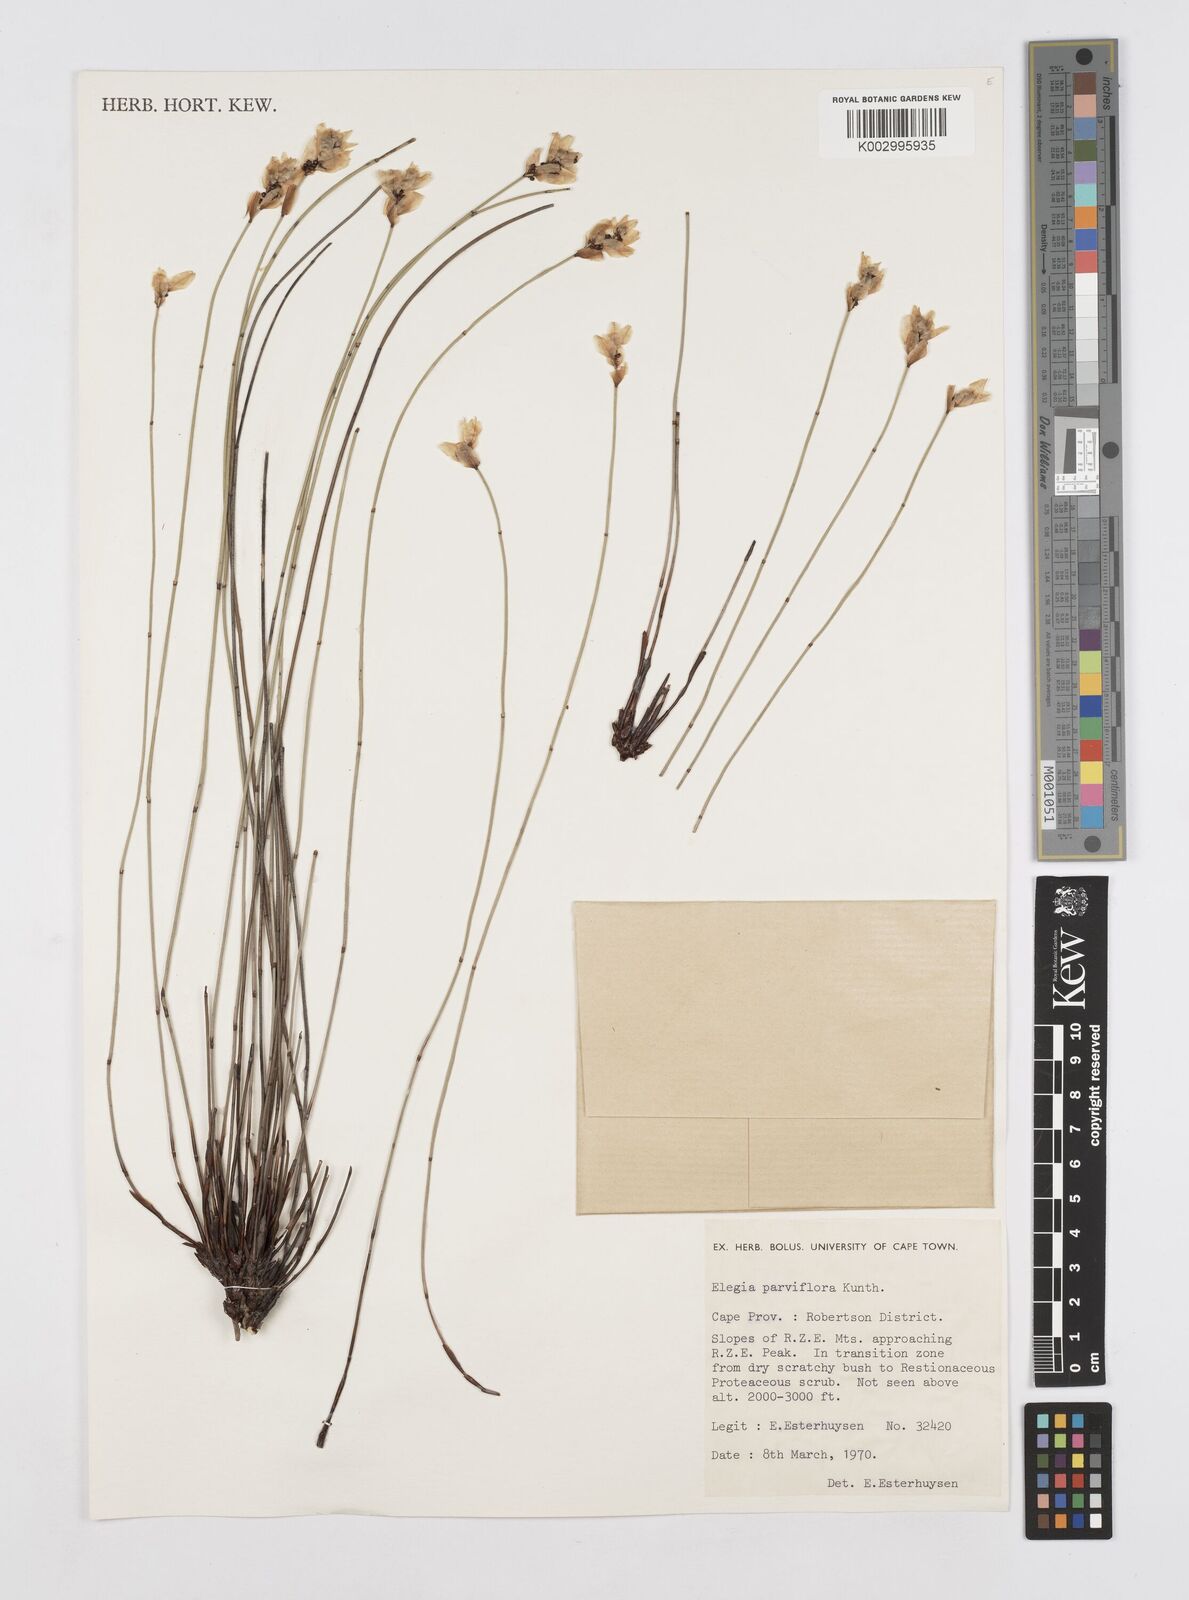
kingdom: Plantae
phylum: Tracheophyta
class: Liliopsida
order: Poales
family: Restionaceae
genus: Cannomois
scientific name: Cannomois parviflora
